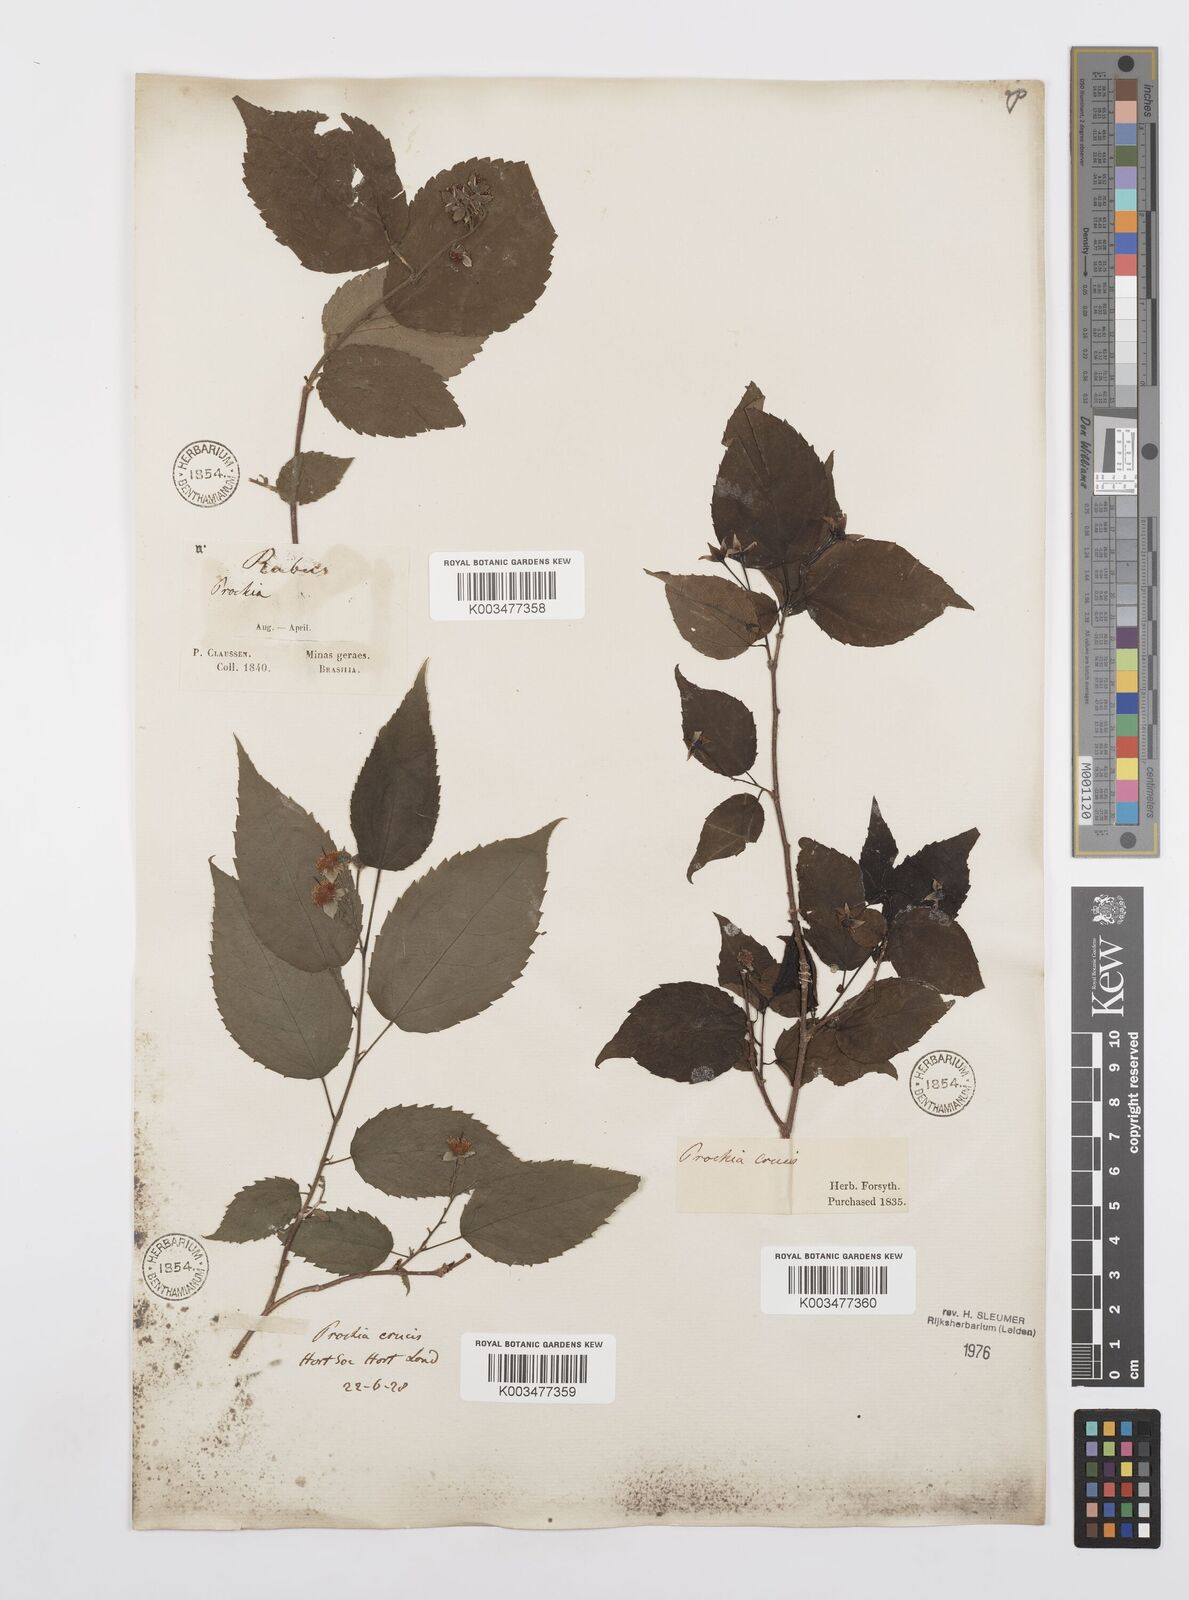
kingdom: Plantae
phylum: Tracheophyta
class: Magnoliopsida
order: Malpighiales
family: Salicaceae
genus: Prockia
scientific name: Prockia crucis
